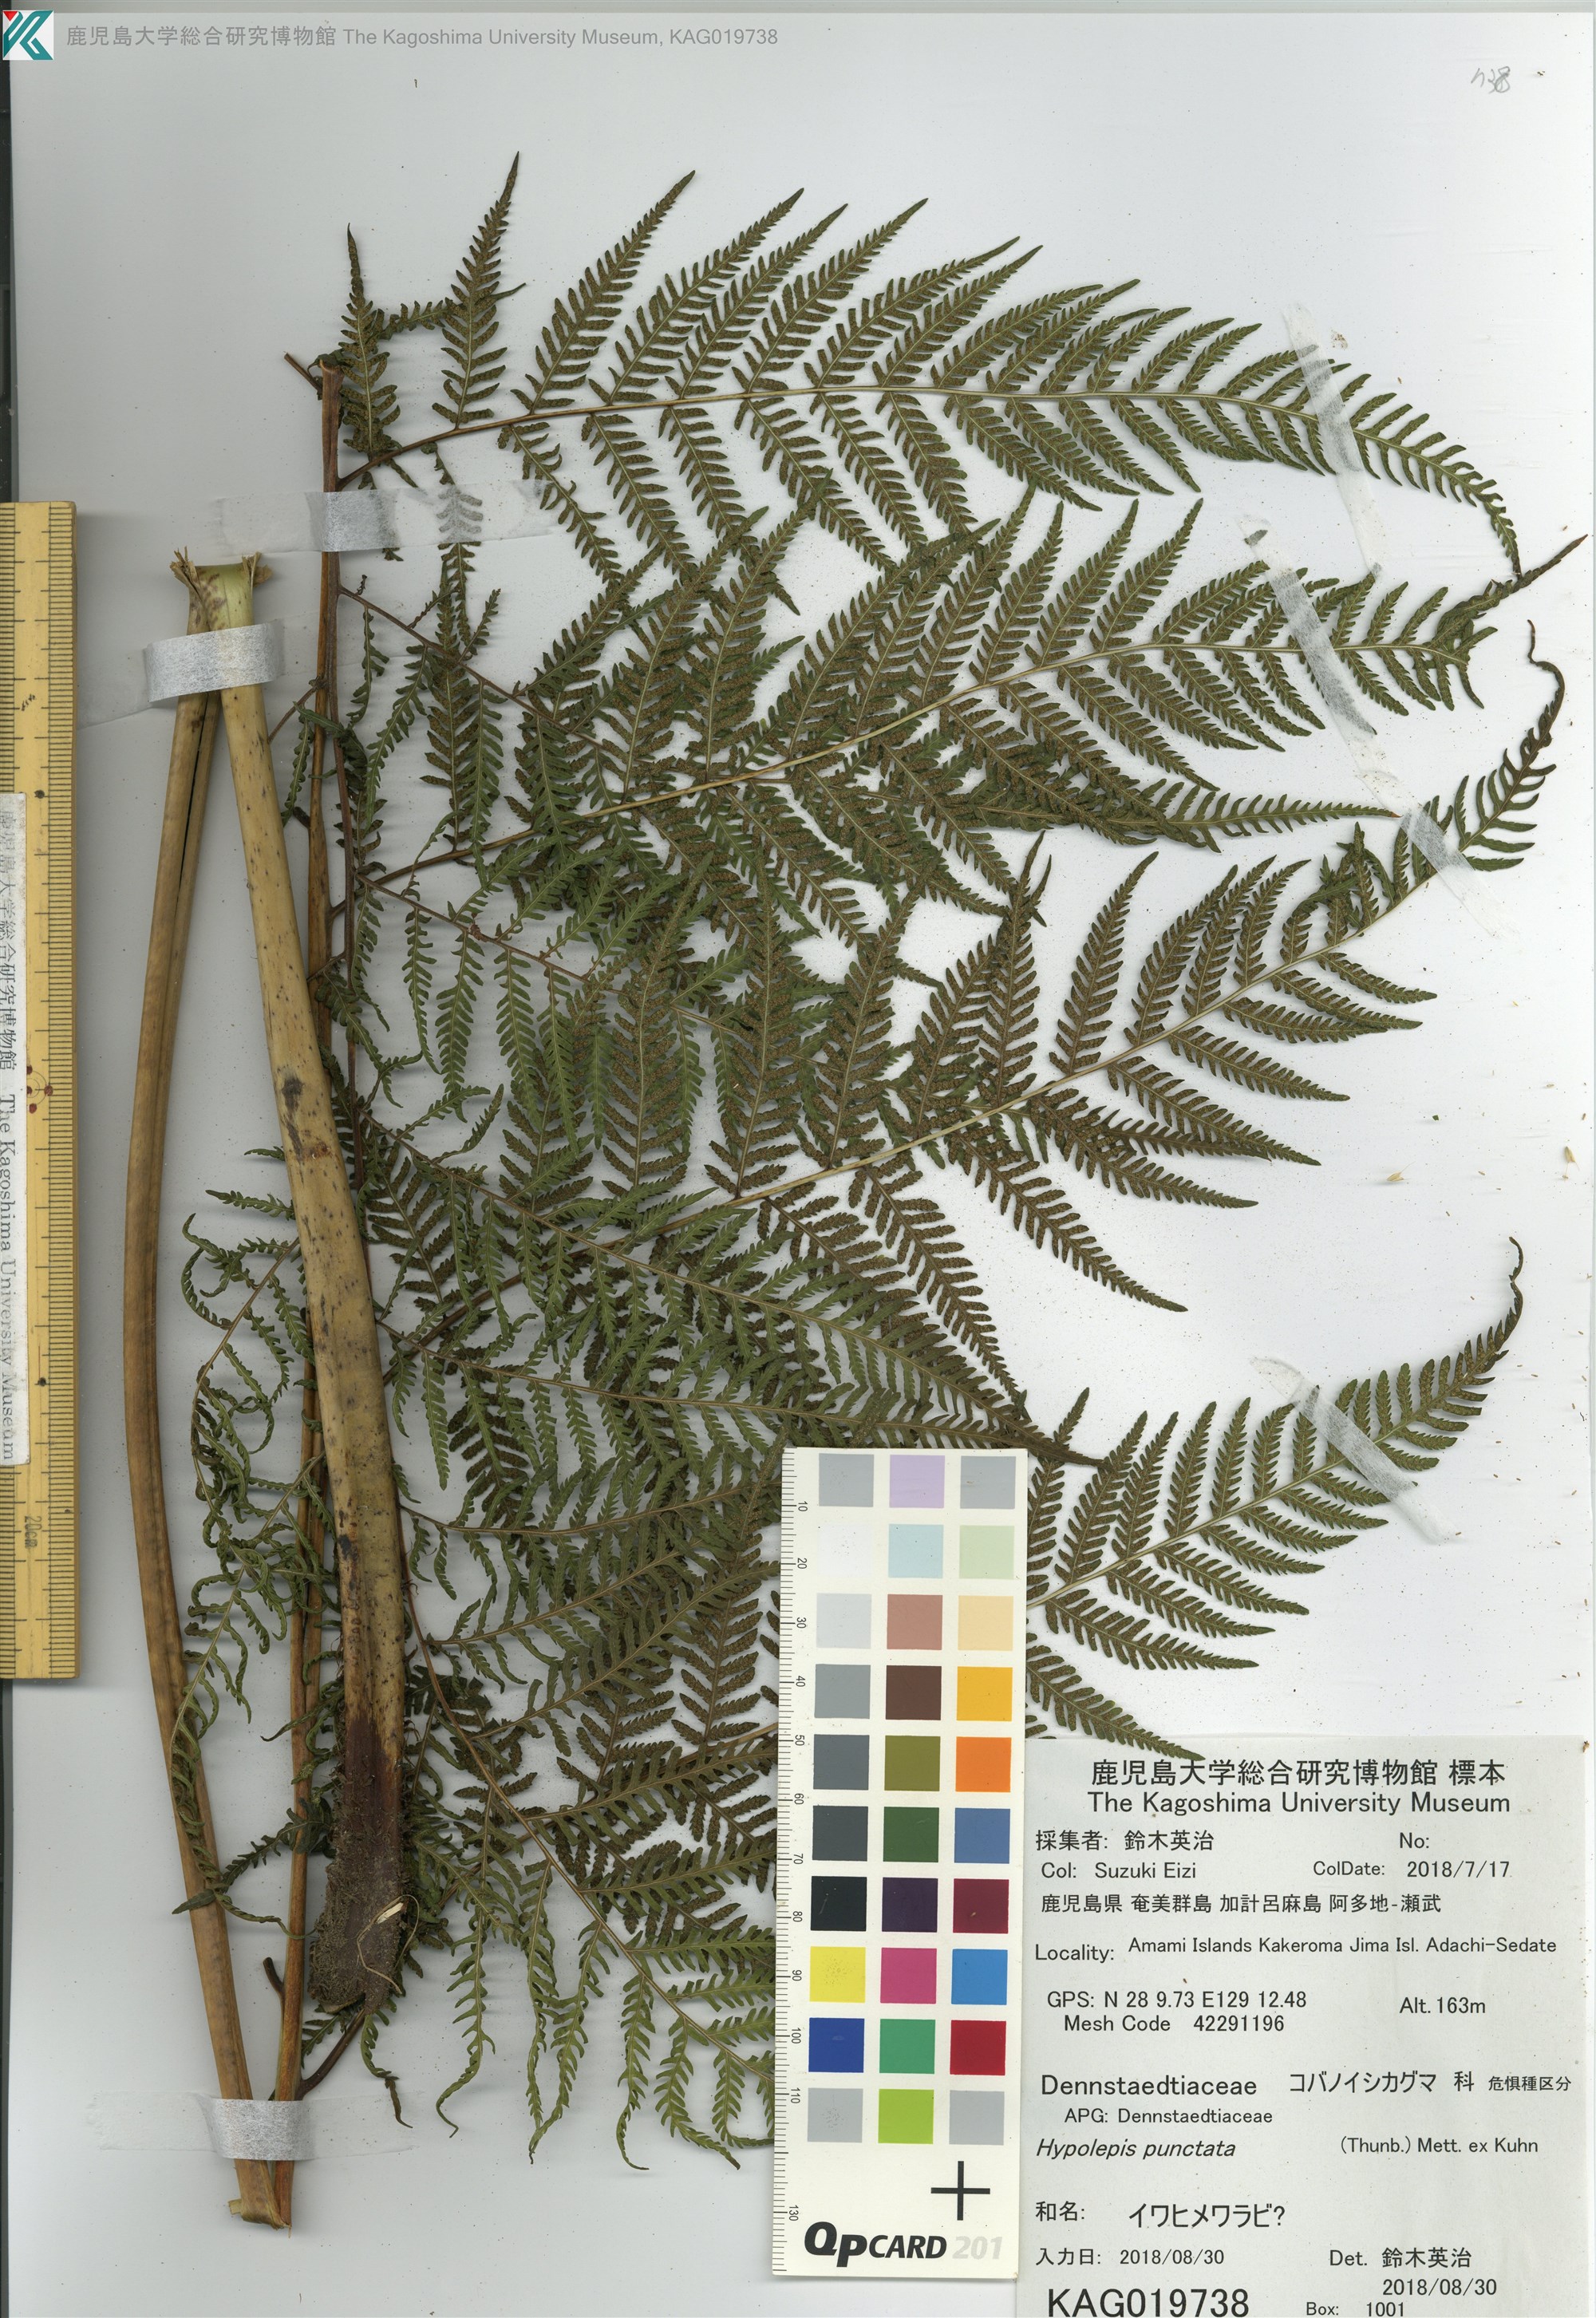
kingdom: Plantae
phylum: Tracheophyta
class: Polypodiopsida
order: Polypodiales
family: Thelypteridaceae
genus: Macrothelypteris
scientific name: Macrothelypteris torresiana
